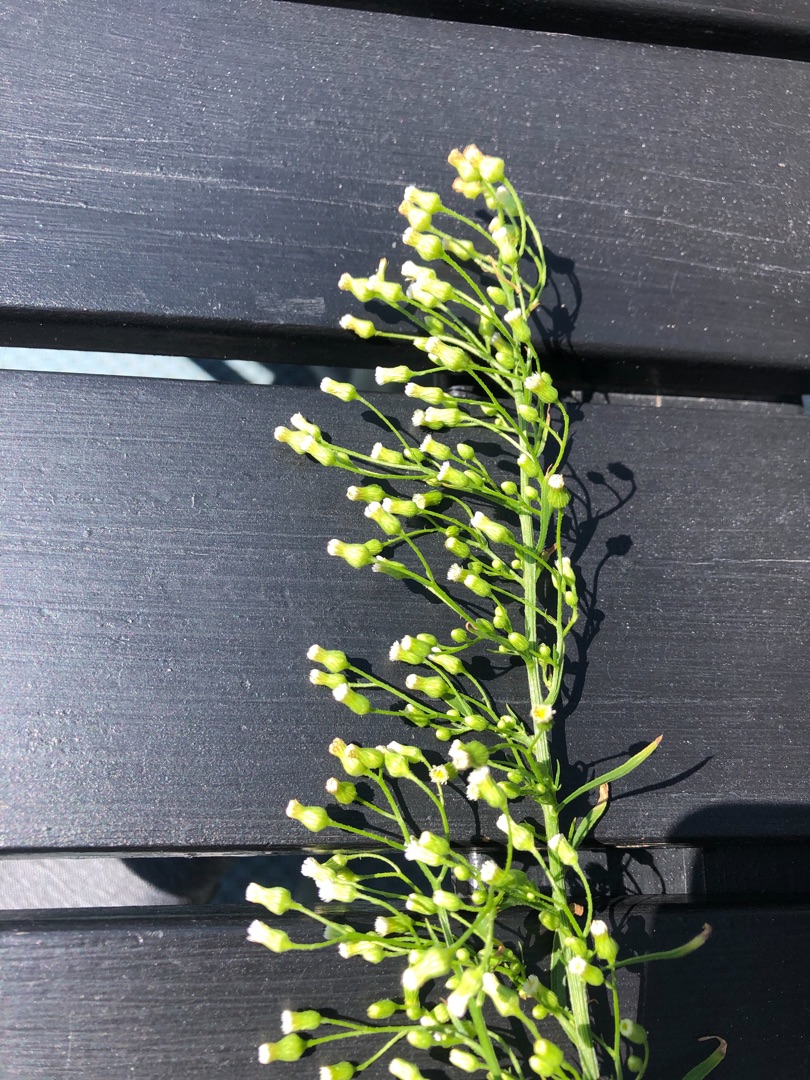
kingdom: Plantae
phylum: Tracheophyta
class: Magnoliopsida
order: Asterales
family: Asteraceae
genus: Erigeron
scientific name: Erigeron canadensis
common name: Kanadisk bakkestjerne
